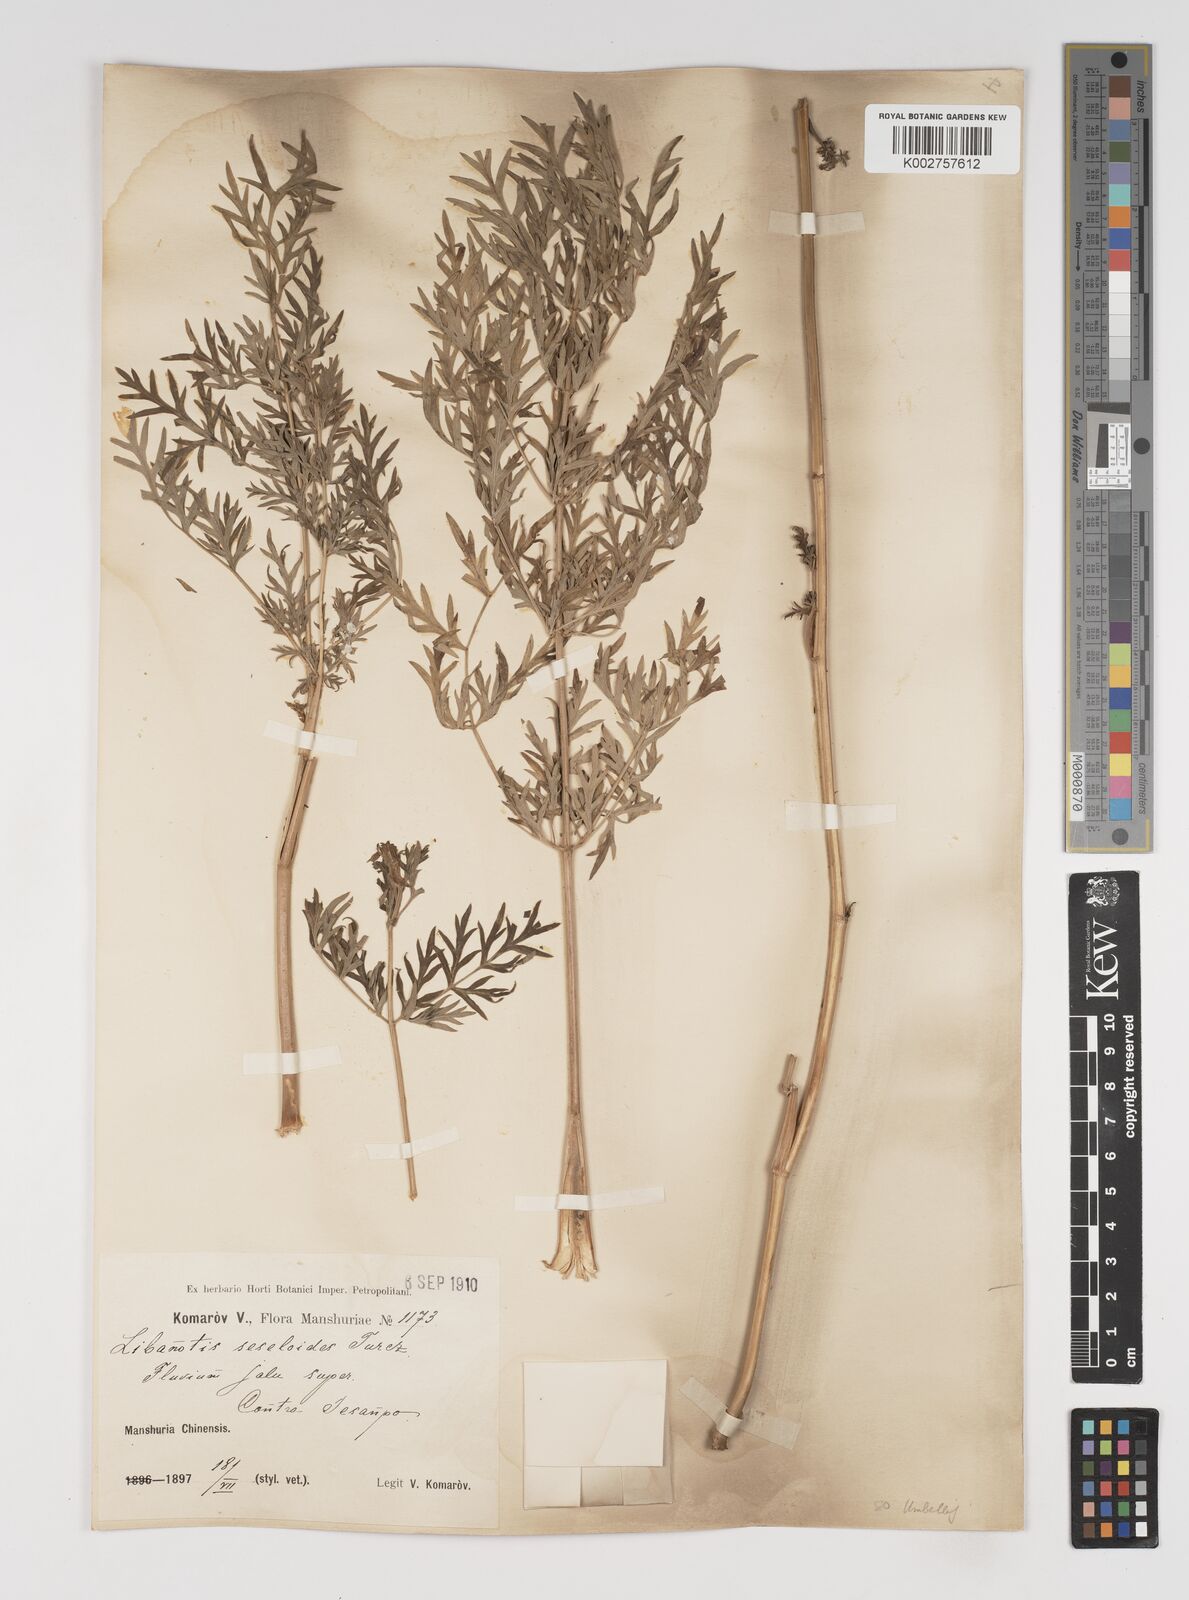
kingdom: Plantae
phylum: Tracheophyta
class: Magnoliopsida
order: Apiales
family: Apiaceae
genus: Seseli
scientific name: Seseli seseloides
